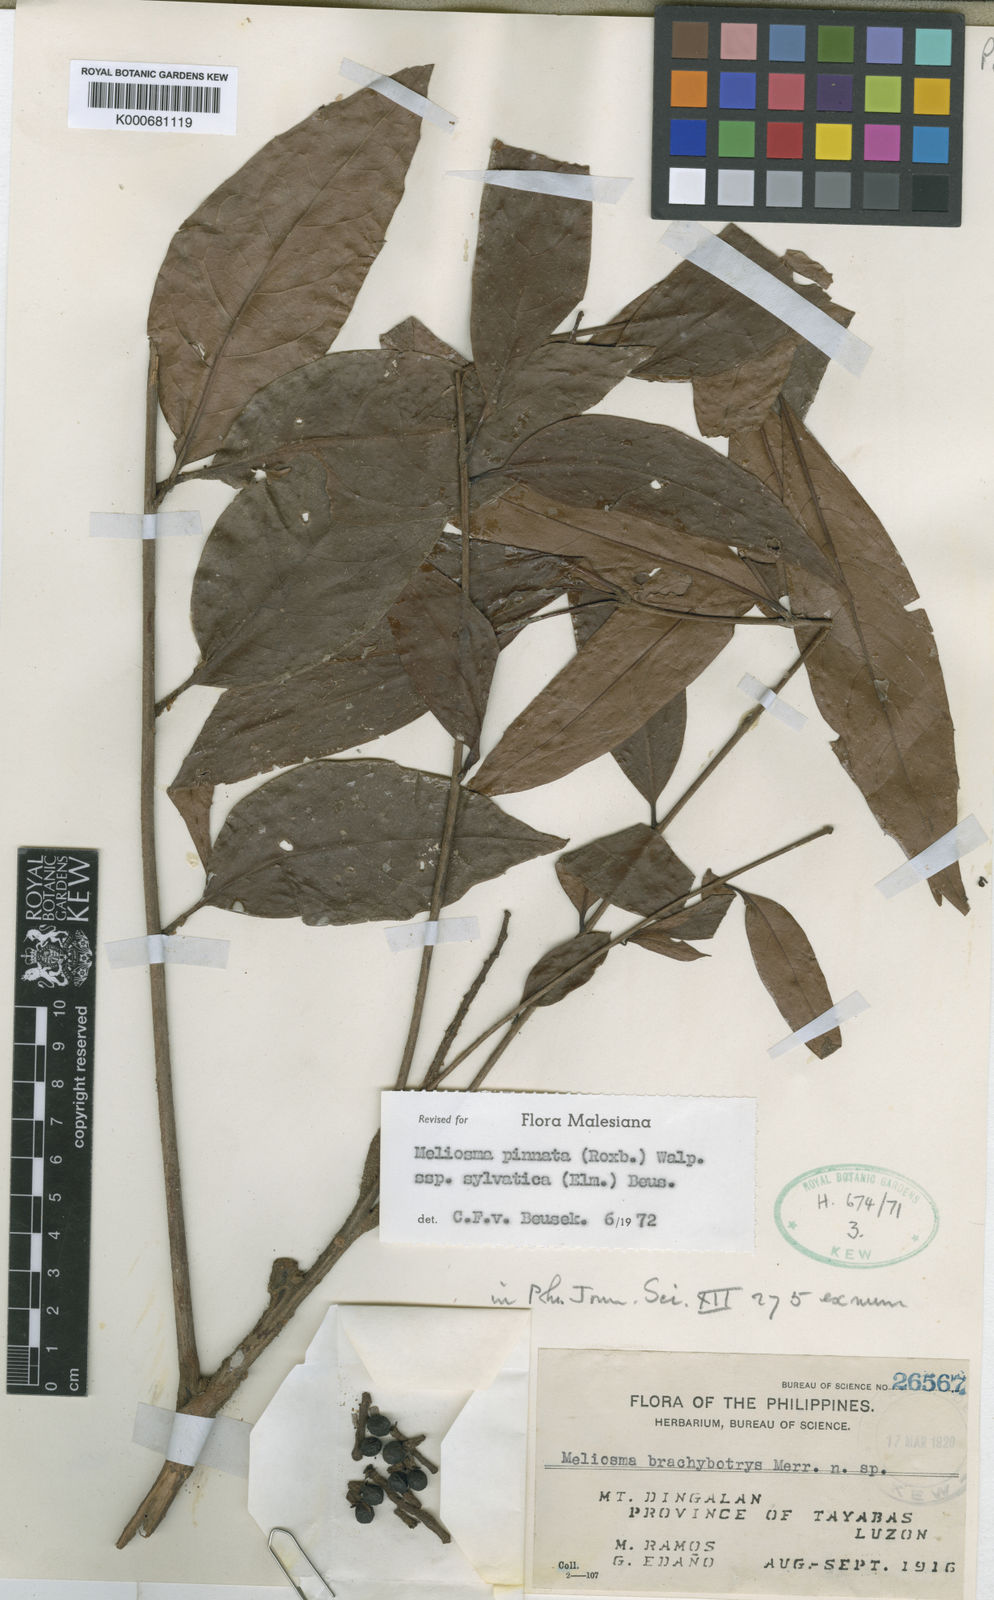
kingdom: Plantae
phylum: Tracheophyta
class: Magnoliopsida
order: Proteales
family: Sabiaceae
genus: Meliosma
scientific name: Meliosma pinnata
